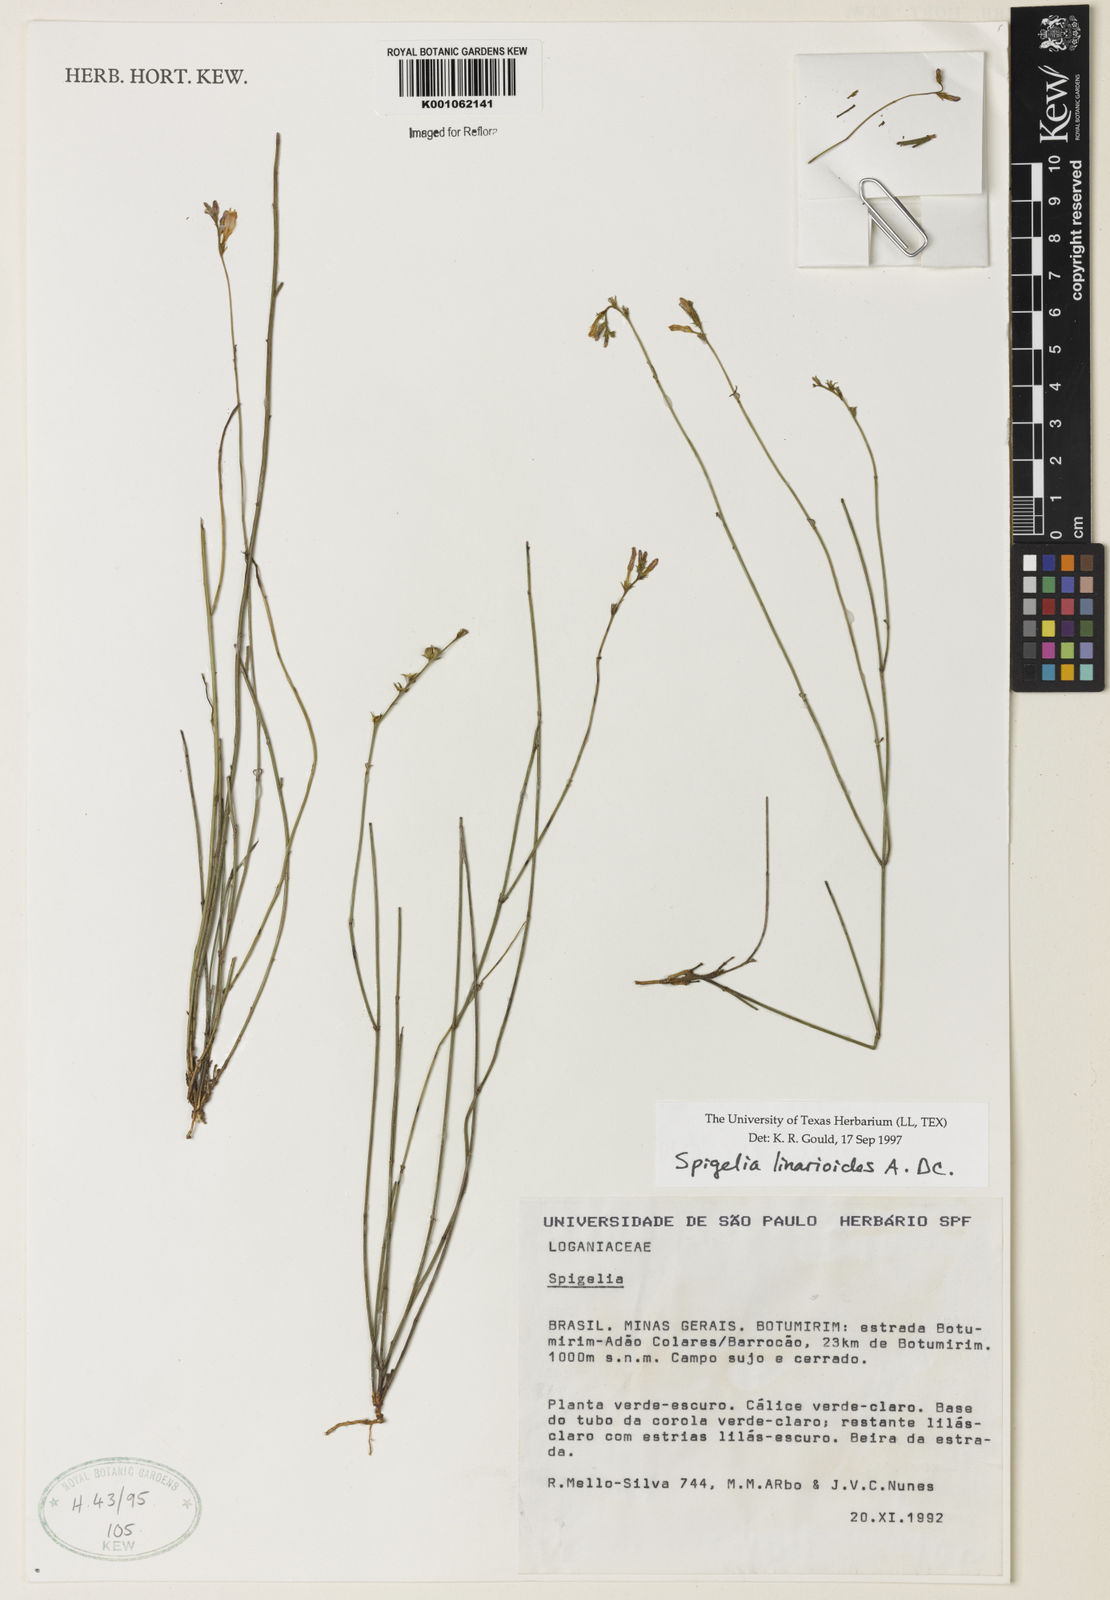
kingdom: Plantae
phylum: Tracheophyta
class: Magnoliopsida
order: Gentianales
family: Loganiaceae
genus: Spigelia
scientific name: Spigelia linarioides
